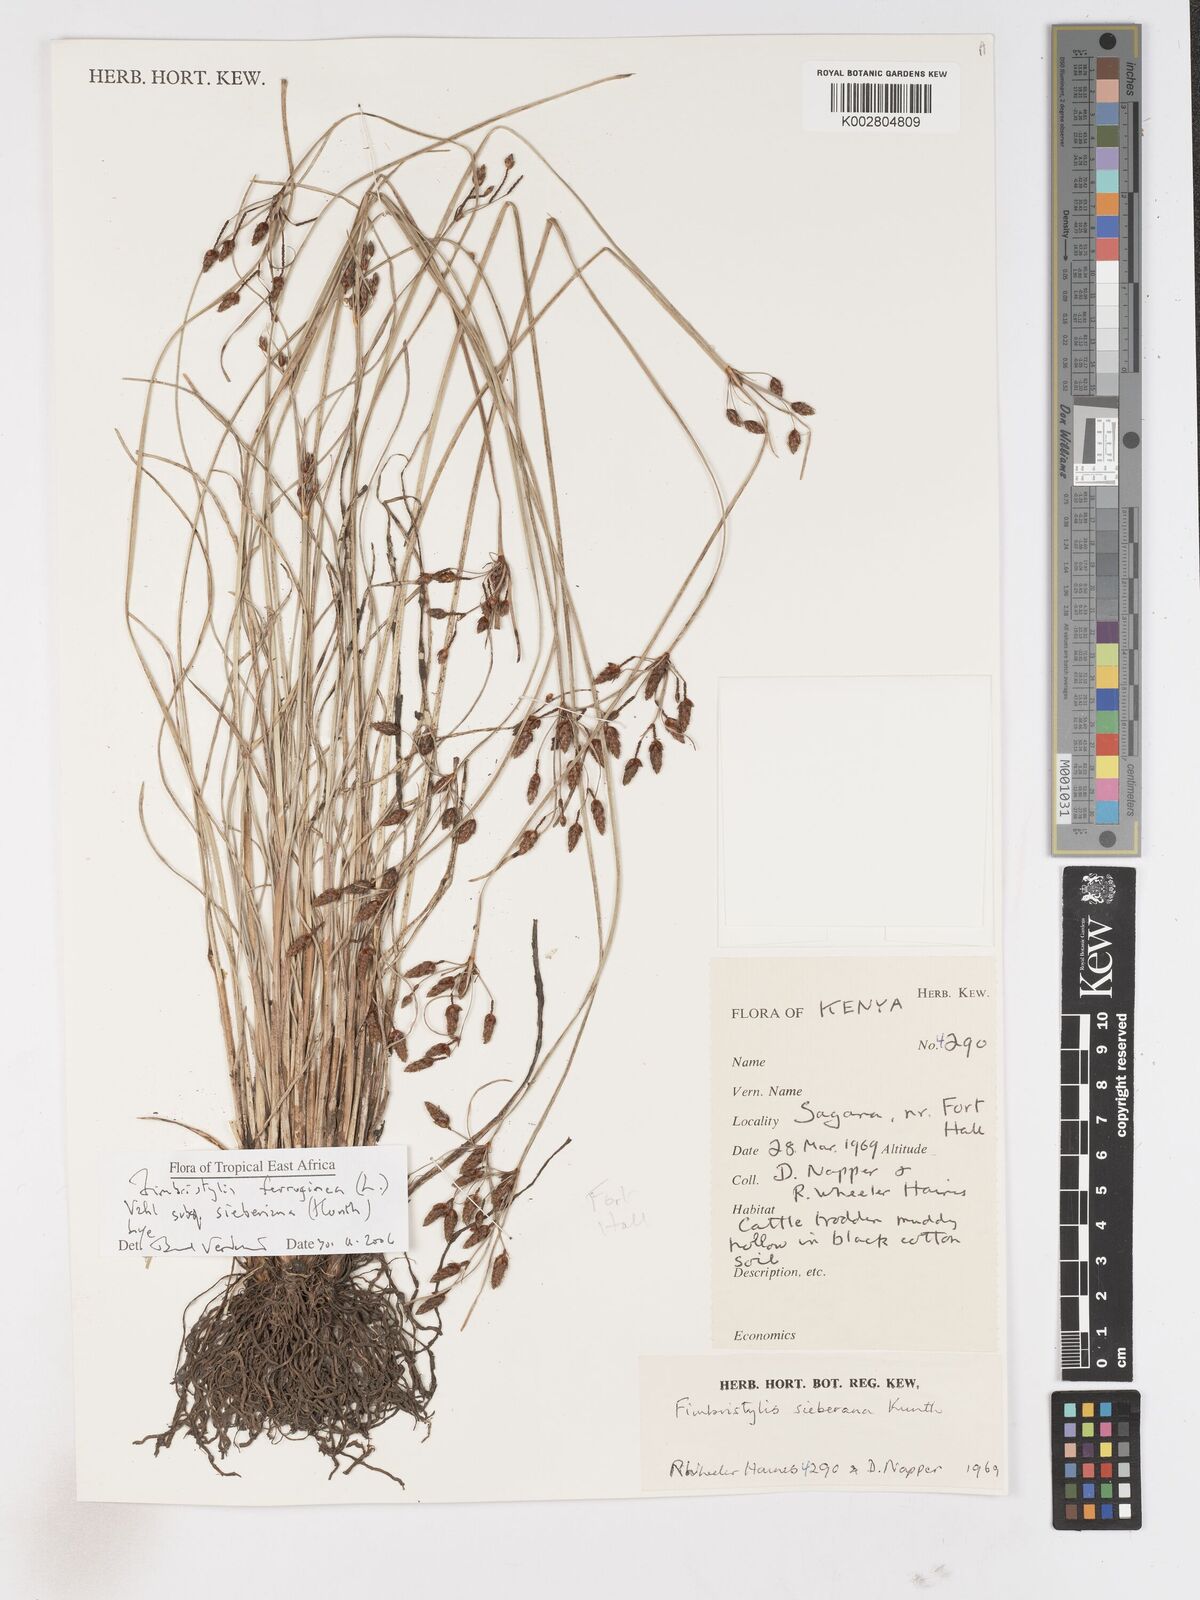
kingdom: Plantae
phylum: Tracheophyta
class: Liliopsida
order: Poales
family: Cyperaceae
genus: Fimbristylis
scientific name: Fimbristylis ferruginea
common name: West indian fimbry
